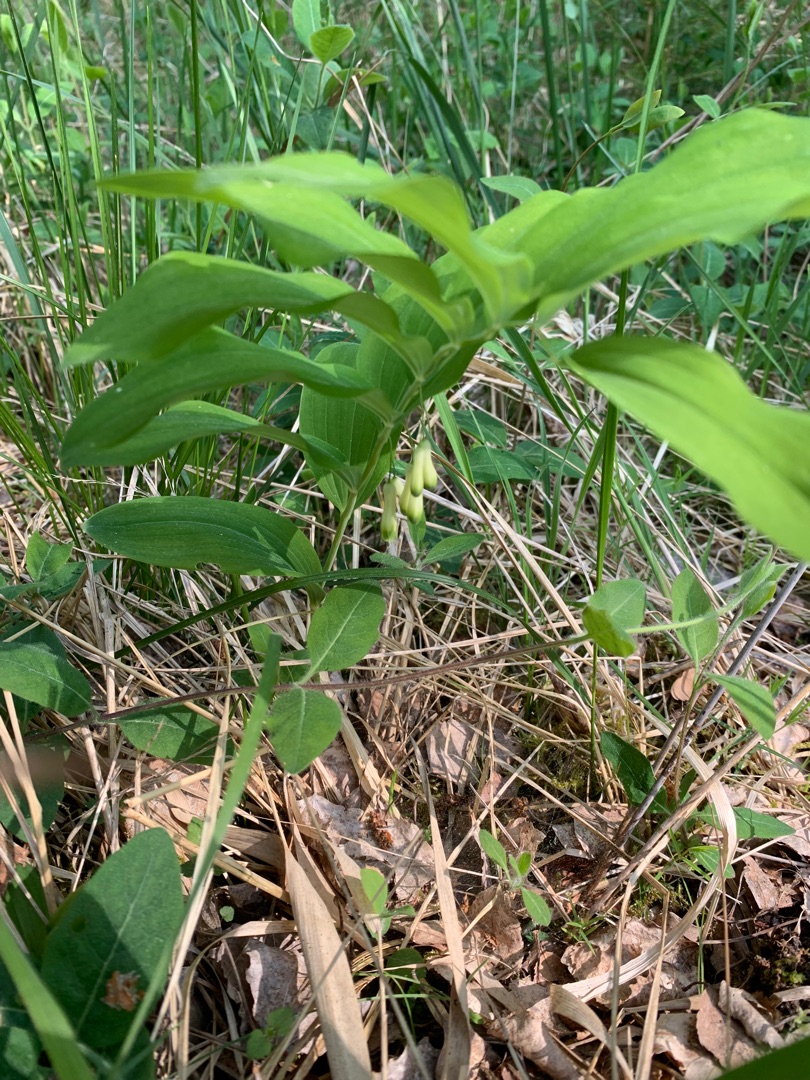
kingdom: Plantae
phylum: Tracheophyta
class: Liliopsida
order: Asparagales
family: Asparagaceae
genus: Polygonatum
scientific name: Polygonatum multiflorum
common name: Stor konval
